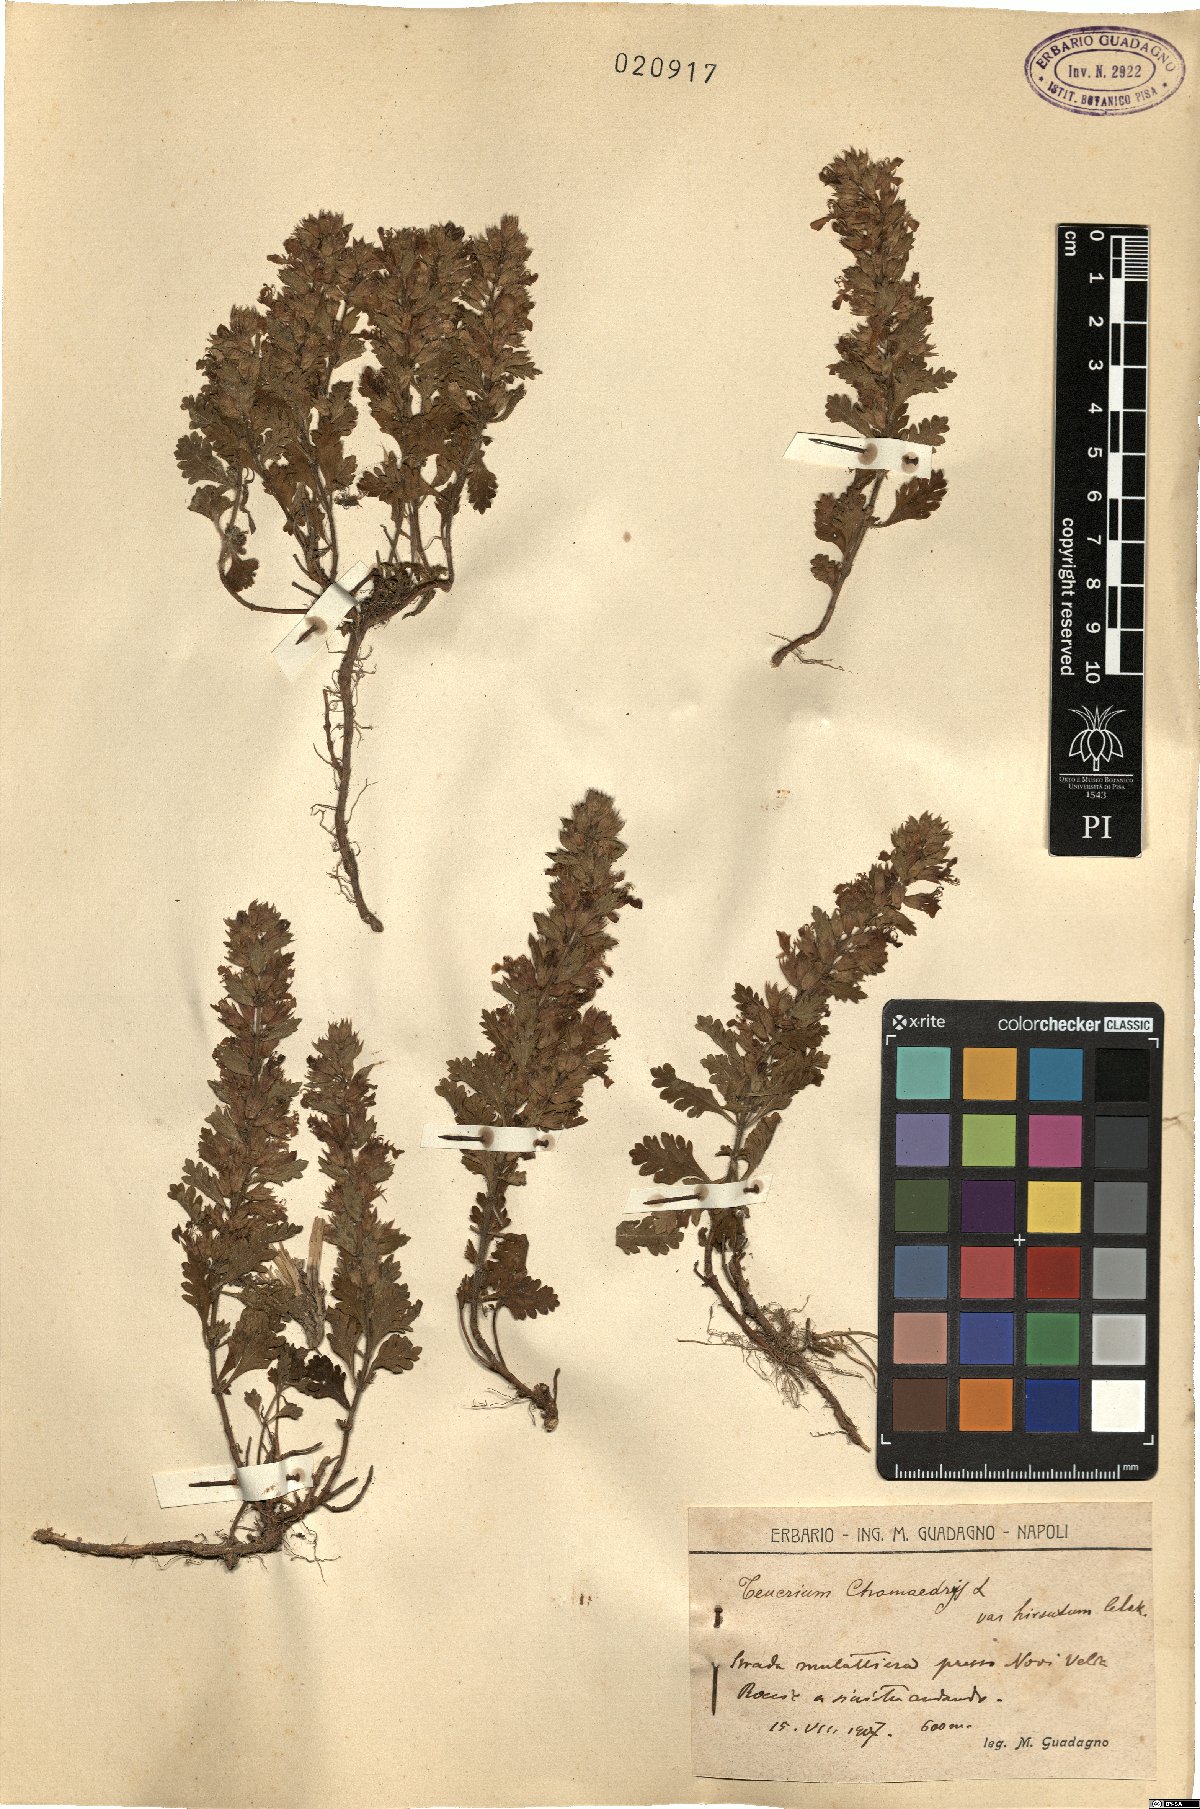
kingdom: Plantae
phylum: Tracheophyta
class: Magnoliopsida
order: Lamiales
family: Lamiaceae
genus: Teucrium
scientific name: Teucrium chamaedrys
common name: Wall germander
